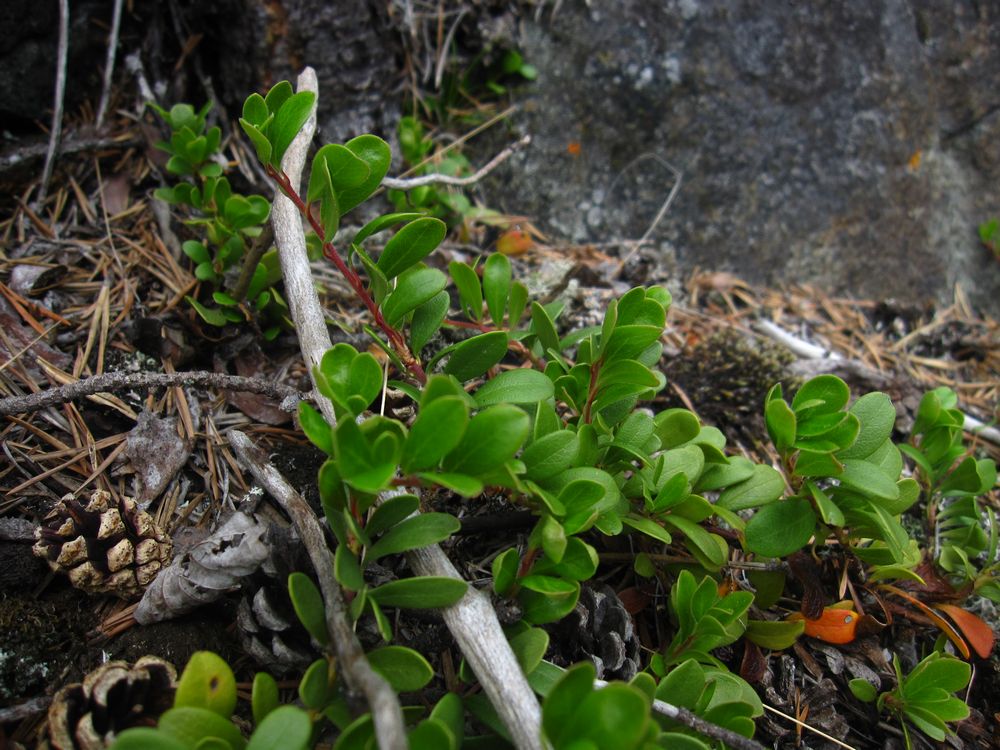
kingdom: Plantae
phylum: Tracheophyta
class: Magnoliopsida
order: Ericales
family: Ericaceae
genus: Arctostaphylos
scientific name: Arctostaphylos uva-ursi
